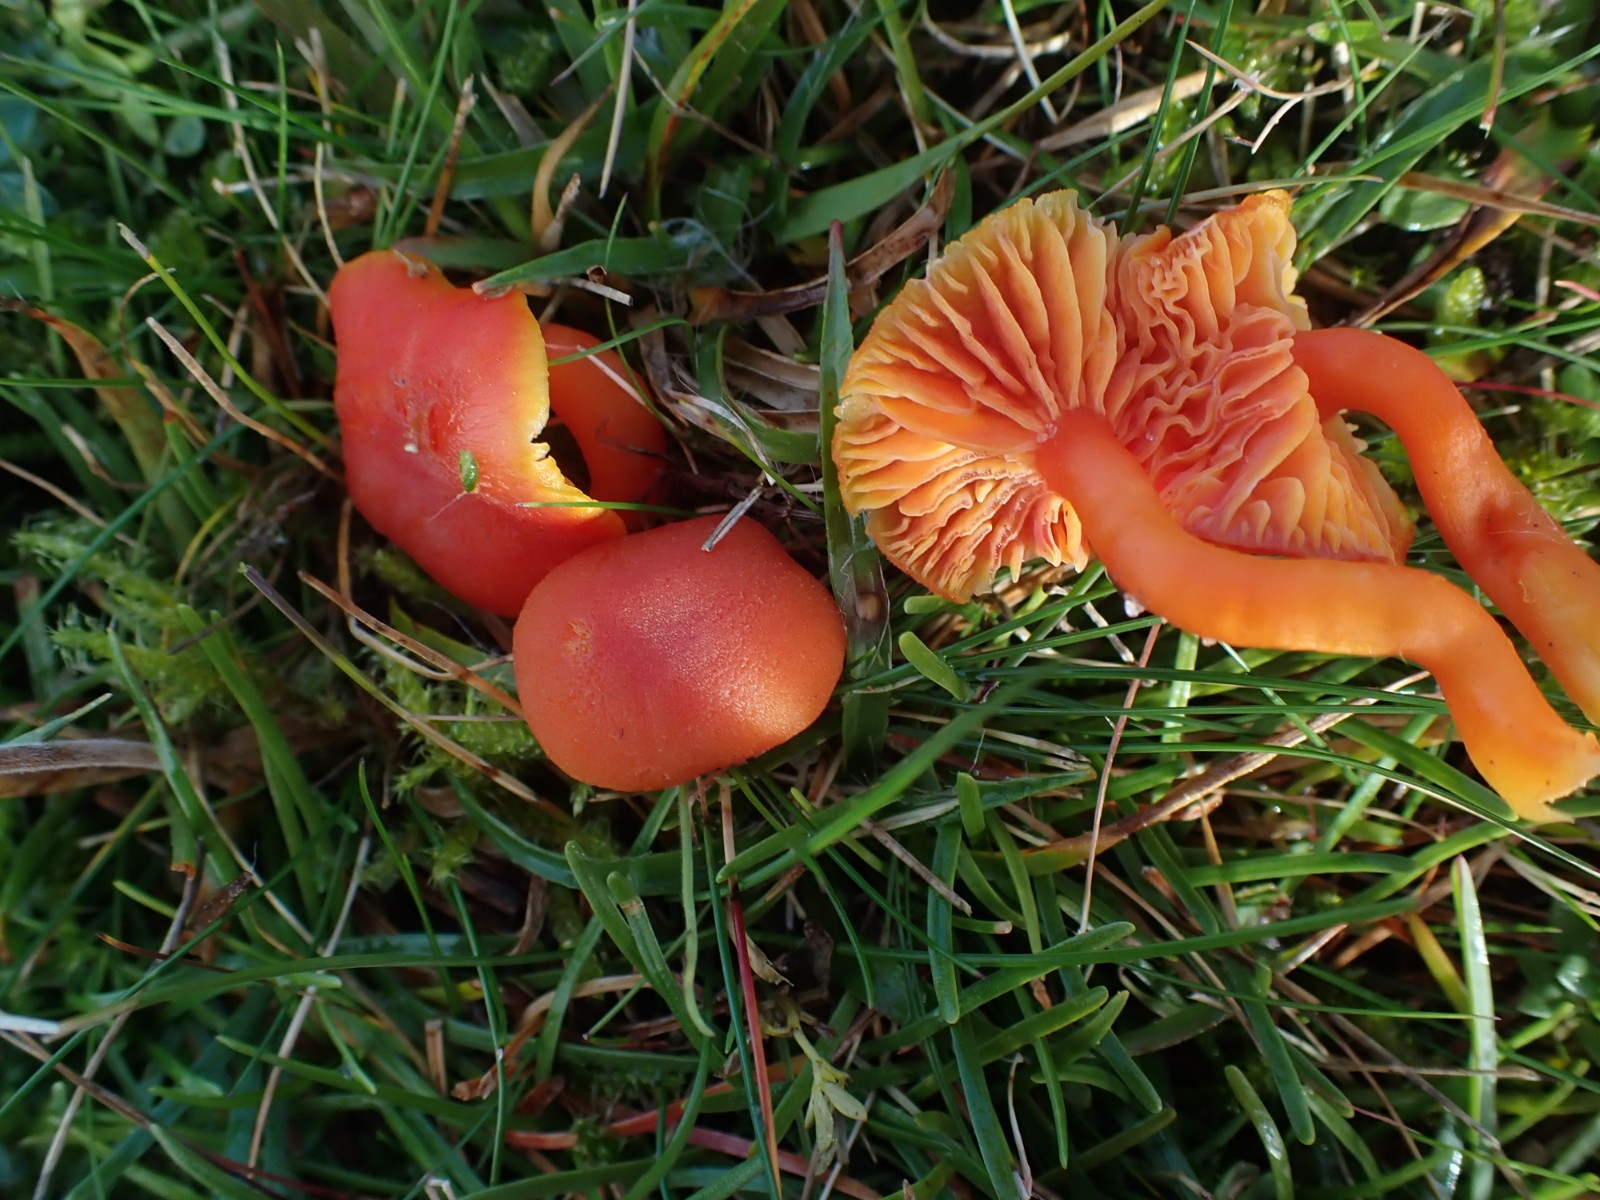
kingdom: Fungi
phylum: Basidiomycota
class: Agaricomycetes
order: Agaricales
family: Hygrophoraceae
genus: Hygrocybe
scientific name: Hygrocybe reidii
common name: honning-vokshat
